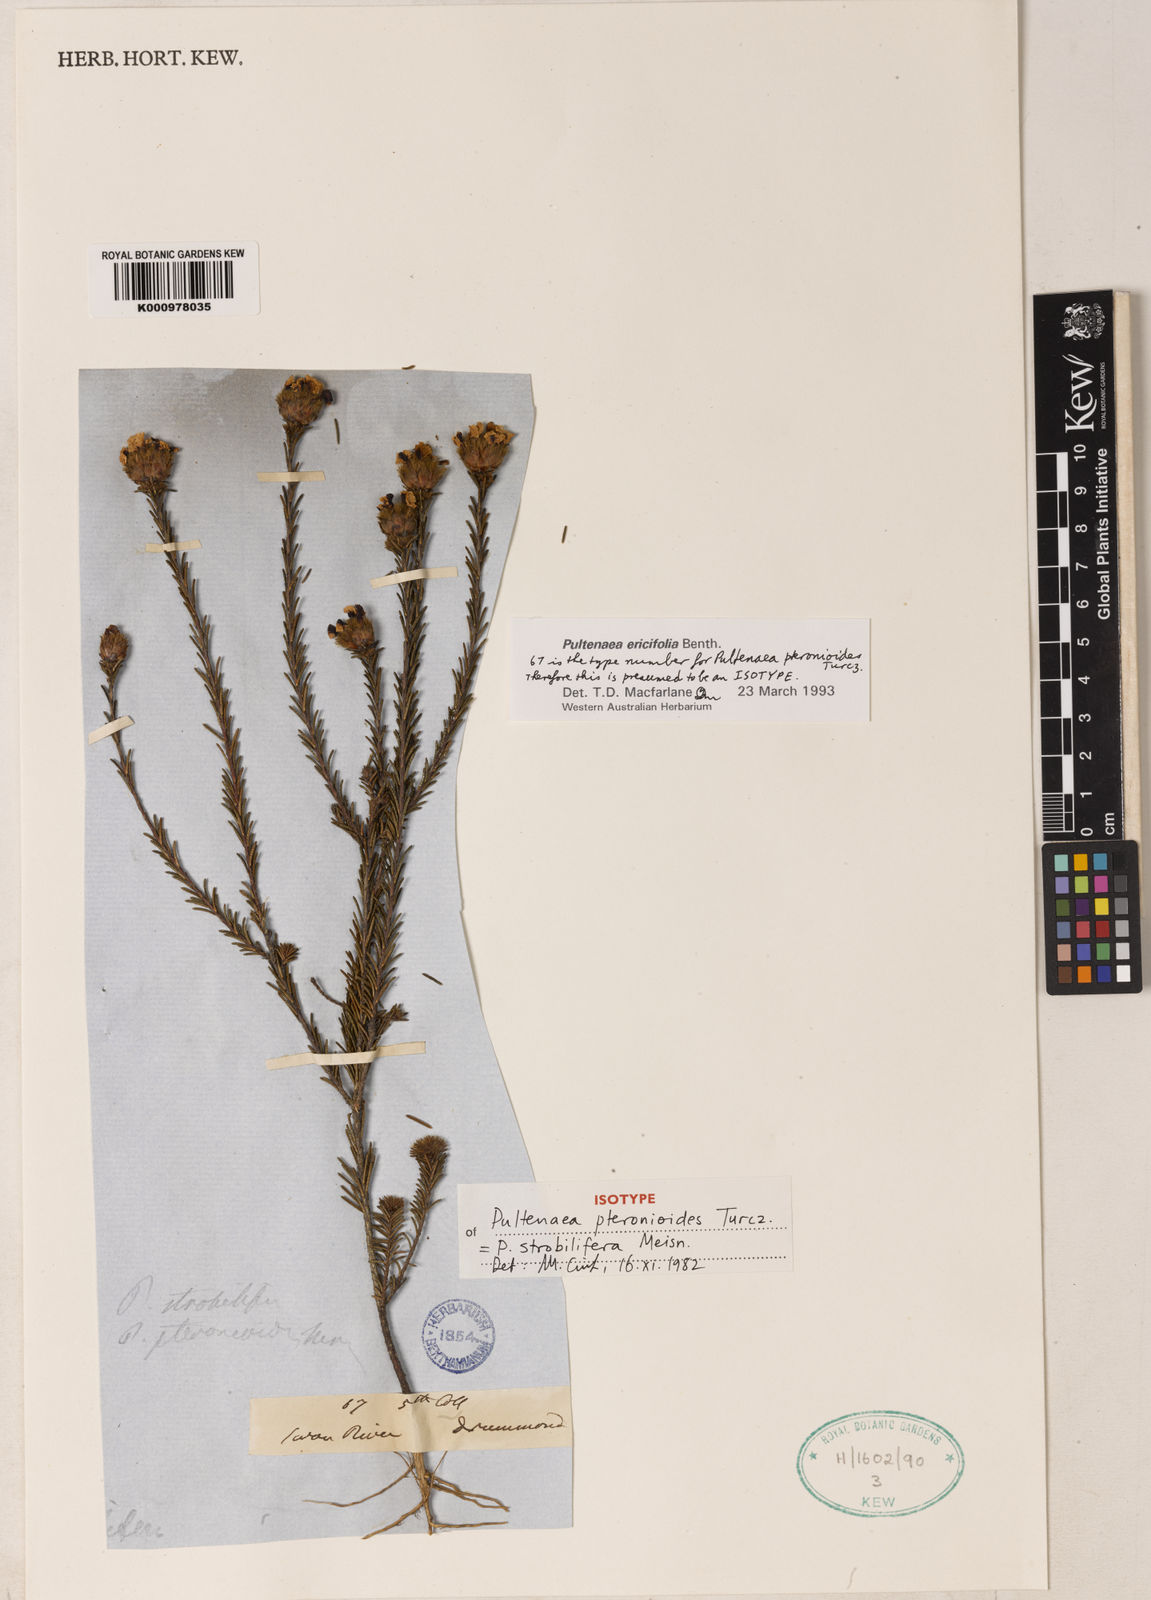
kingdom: Plantae
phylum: Tracheophyta
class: Magnoliopsida
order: Fabales
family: Fabaceae
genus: Pultenaea
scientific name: Pultenaea
